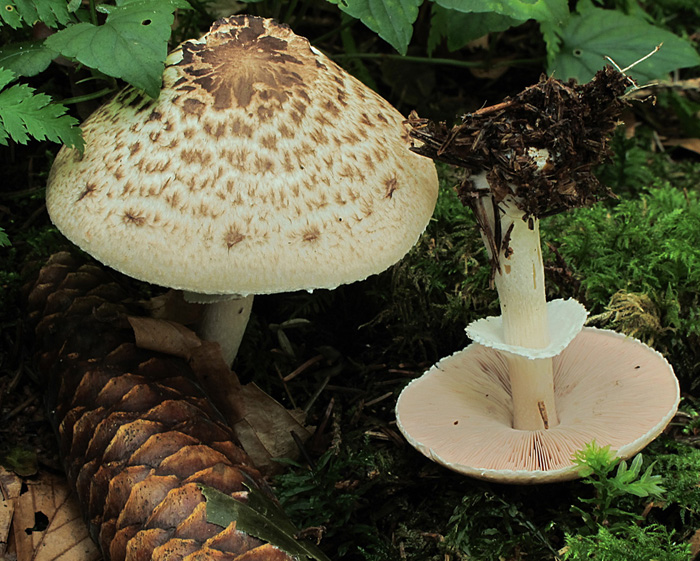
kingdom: Fungi
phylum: Basidiomycota
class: Agaricomycetes
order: Agaricales
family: Agaricaceae
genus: Agaricus
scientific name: Agaricus impudicus
